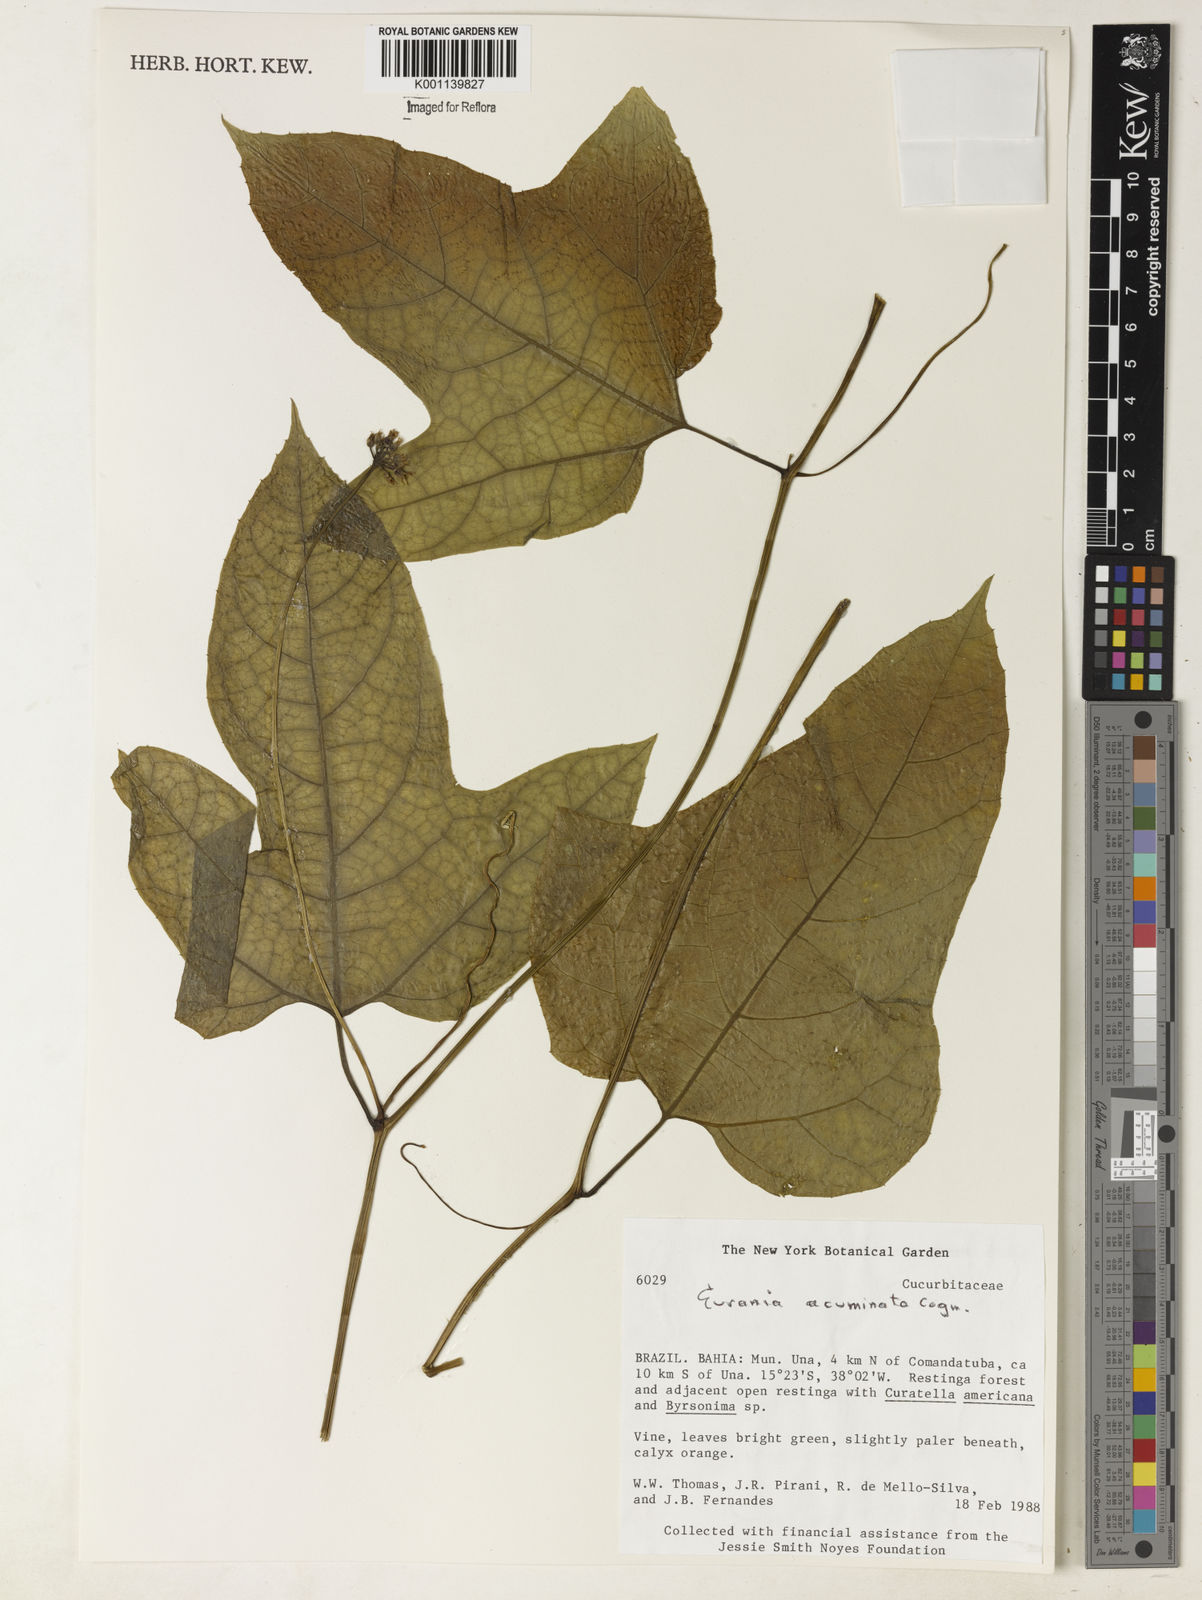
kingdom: Plantae
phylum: Tracheophyta
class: Magnoliopsida
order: Cucurbitales
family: Cucurbitaceae
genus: Gurania
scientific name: Gurania acuminata
